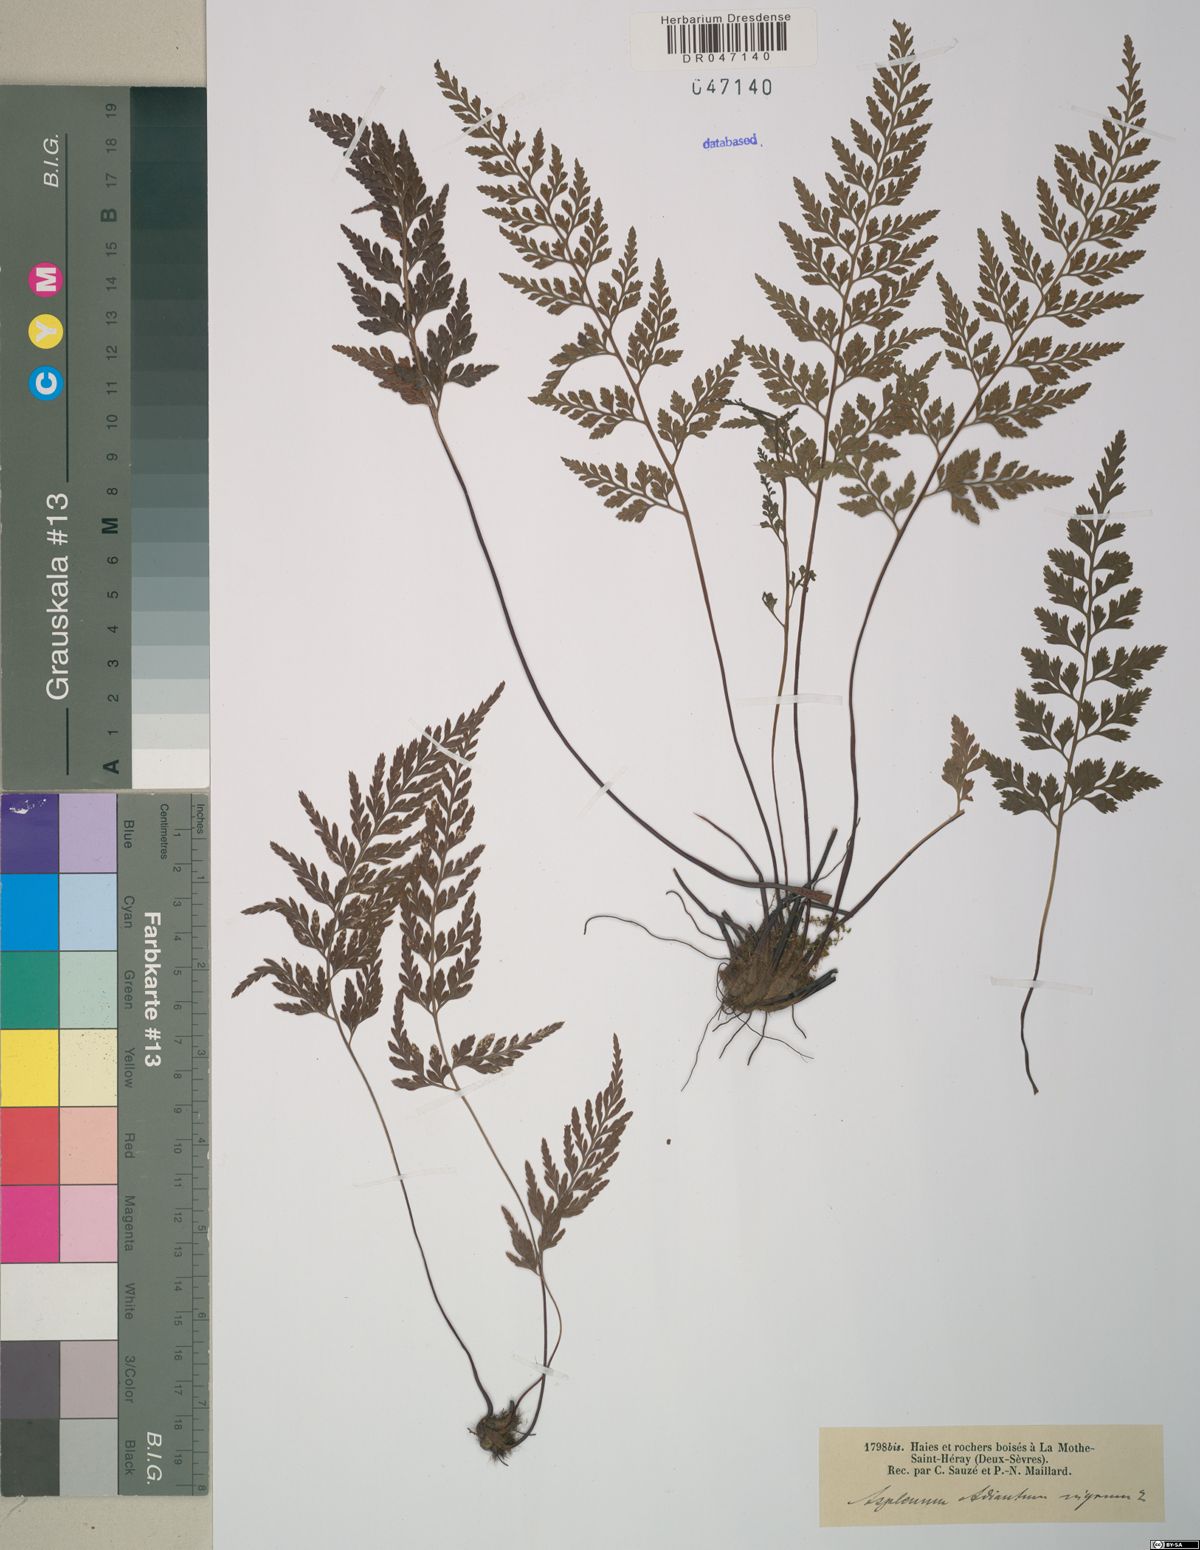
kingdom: Plantae
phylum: Tracheophyta
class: Polypodiopsida
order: Polypodiales
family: Aspleniaceae
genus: Asplenium
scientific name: Asplenium adiantum-nigrum
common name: Black spleenwort
